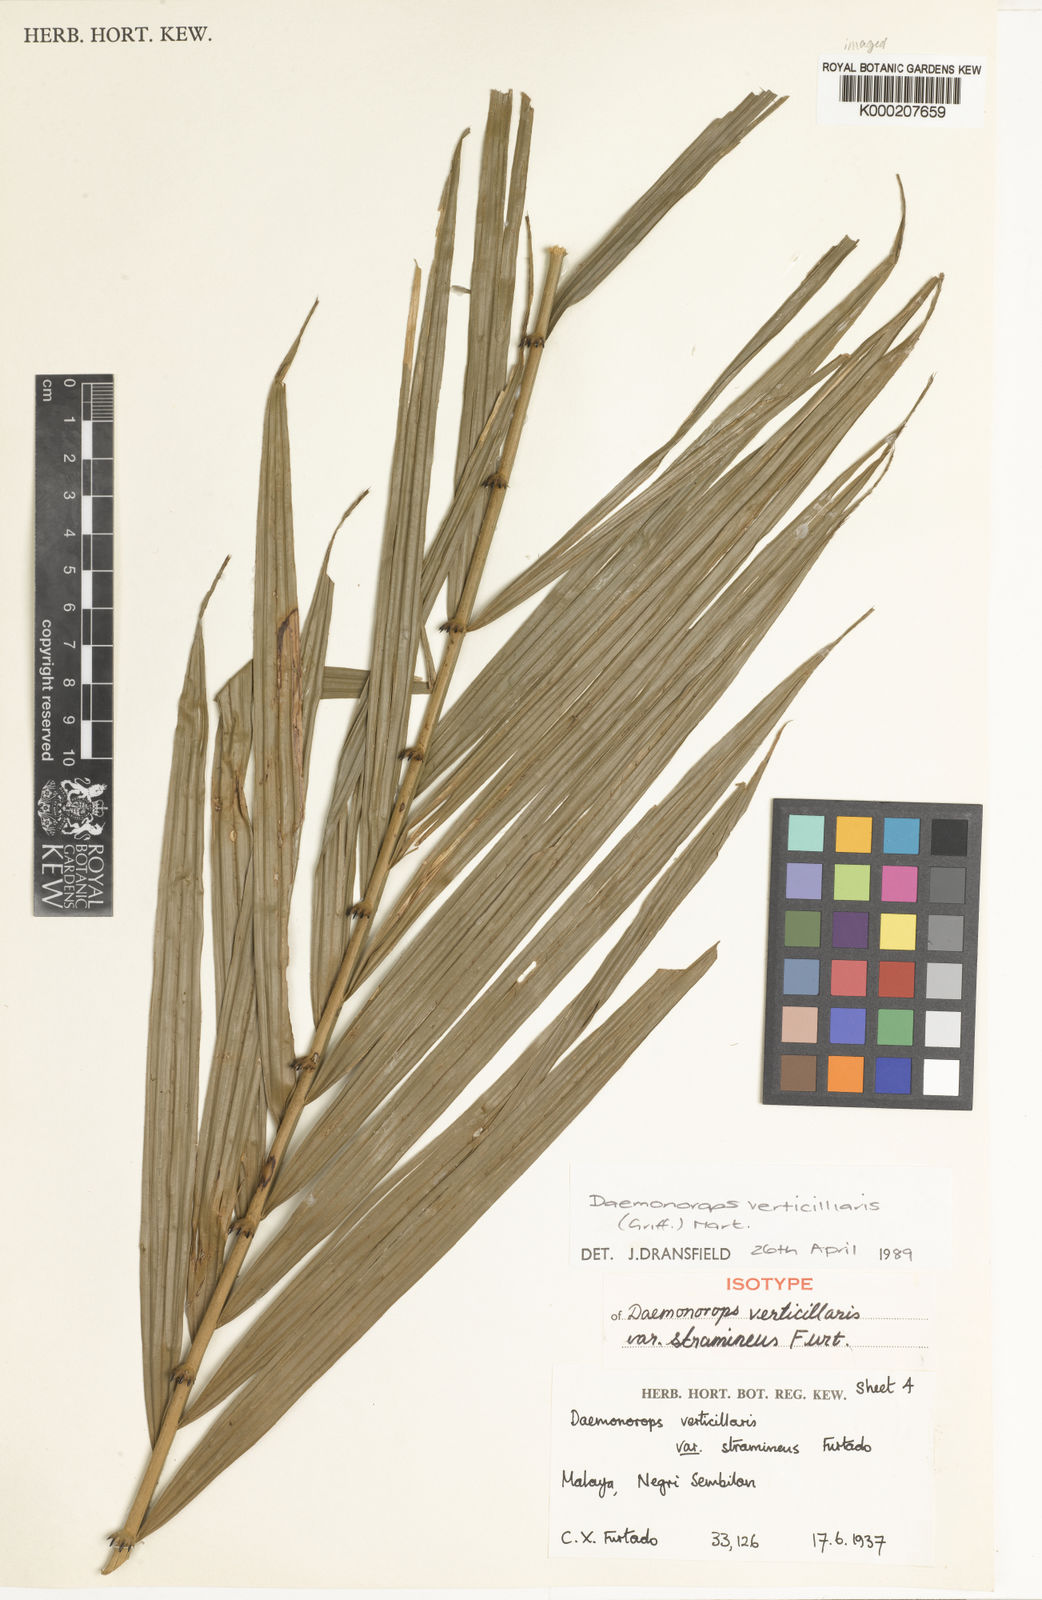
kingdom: Plantae
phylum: Tracheophyta
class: Liliopsida
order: Arecales
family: Arecaceae
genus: Calamus
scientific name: Calamus verticillaris
